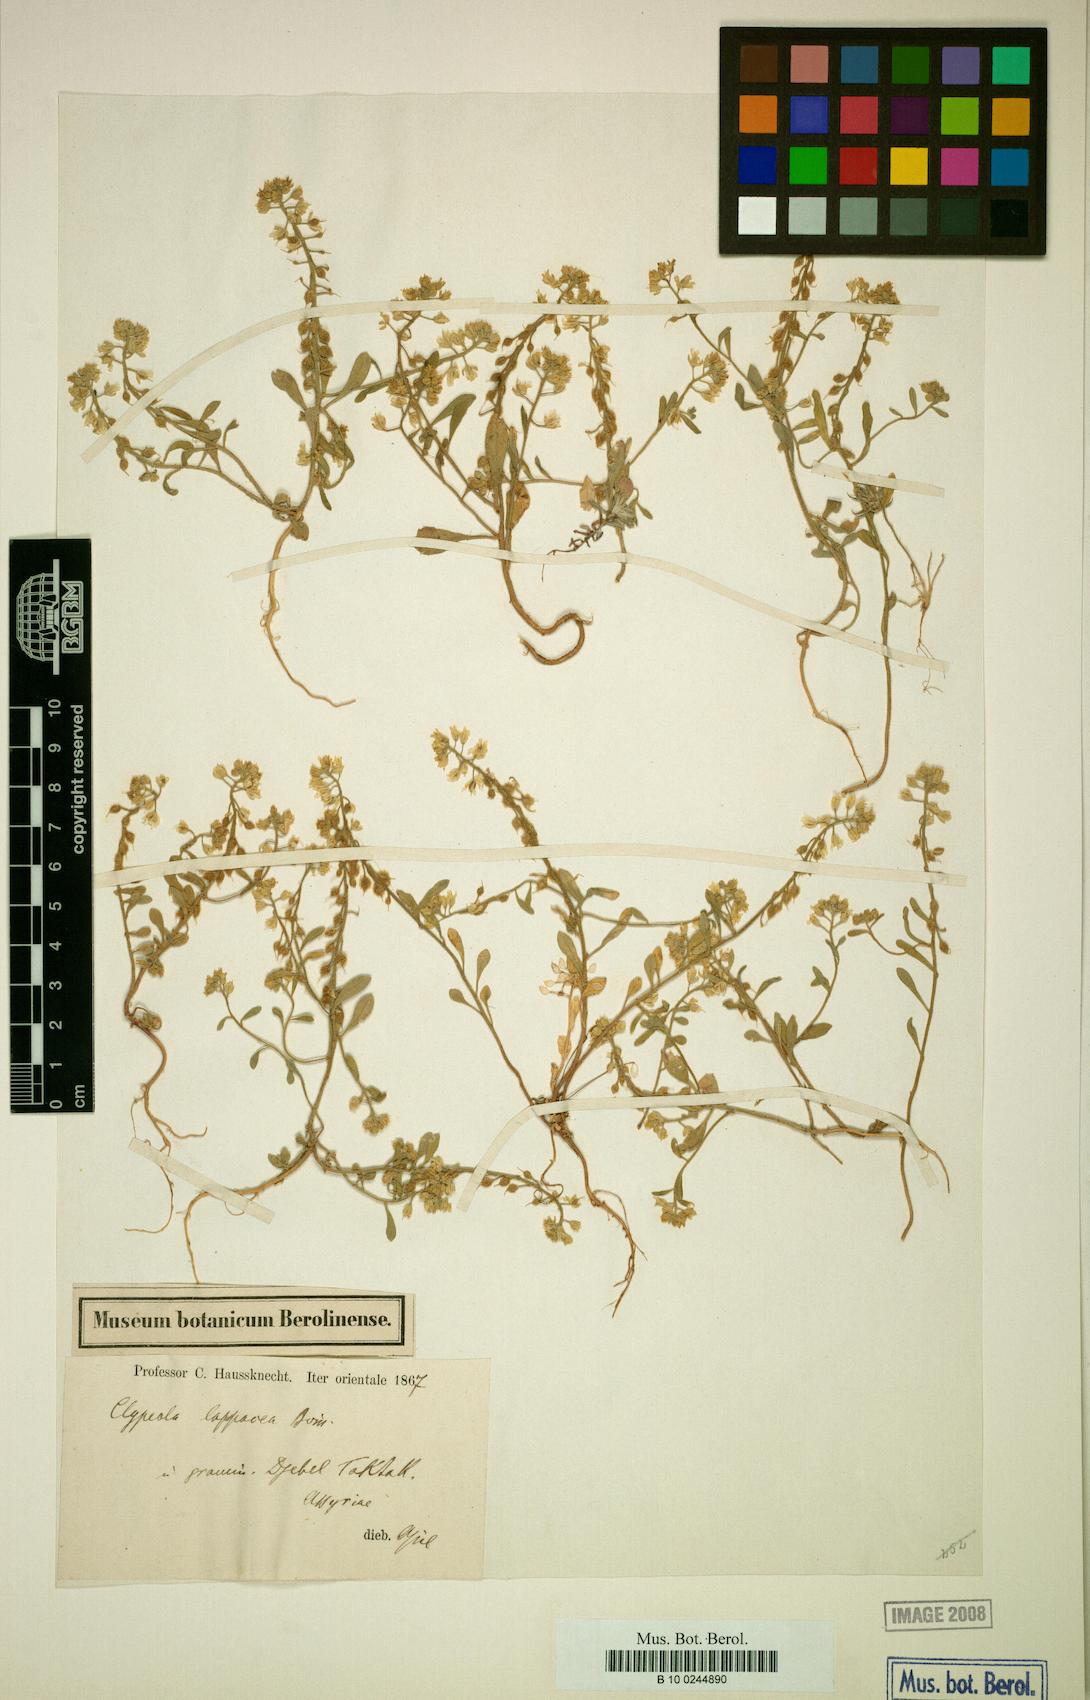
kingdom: Plantae
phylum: Tracheophyta
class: Magnoliopsida
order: Brassicales
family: Brassicaceae
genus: Clypeola
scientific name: Clypeola lappacea
